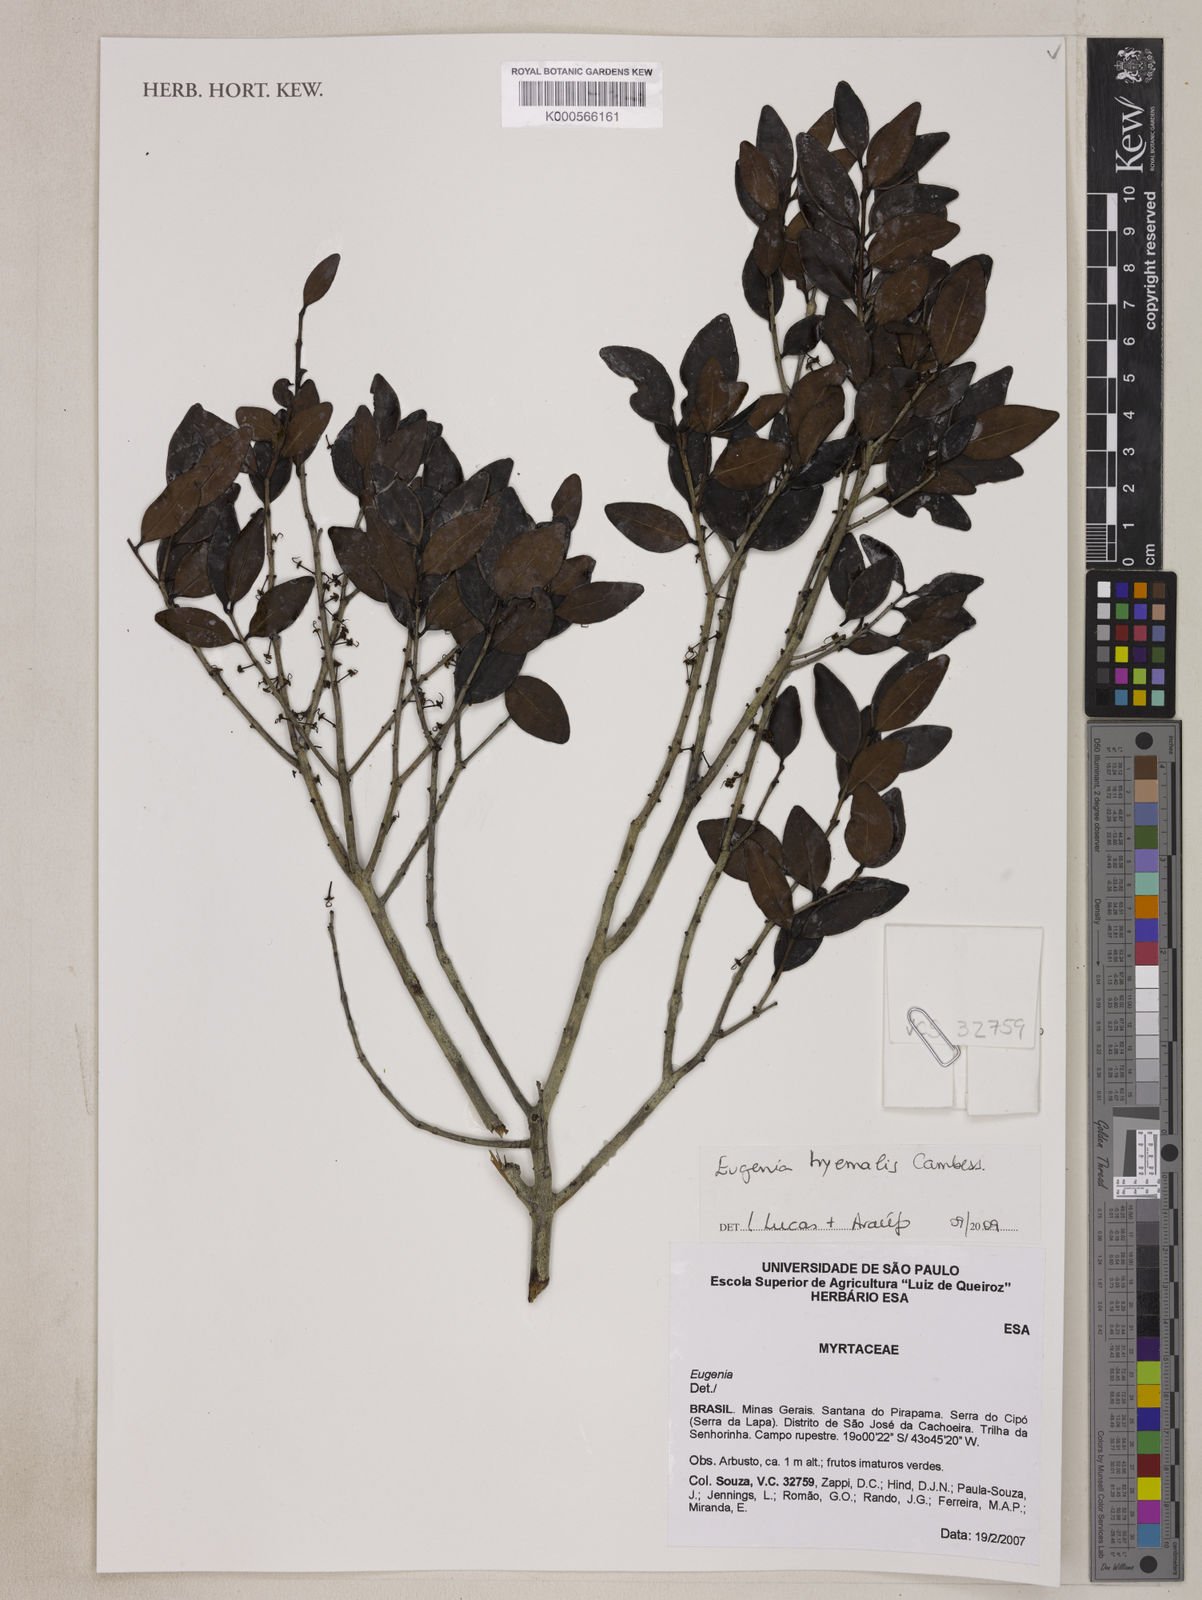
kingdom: Plantae
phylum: Tracheophyta
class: Magnoliopsida
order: Myrtales
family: Myrtaceae
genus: Eugenia
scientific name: Eugenia hiemalis
